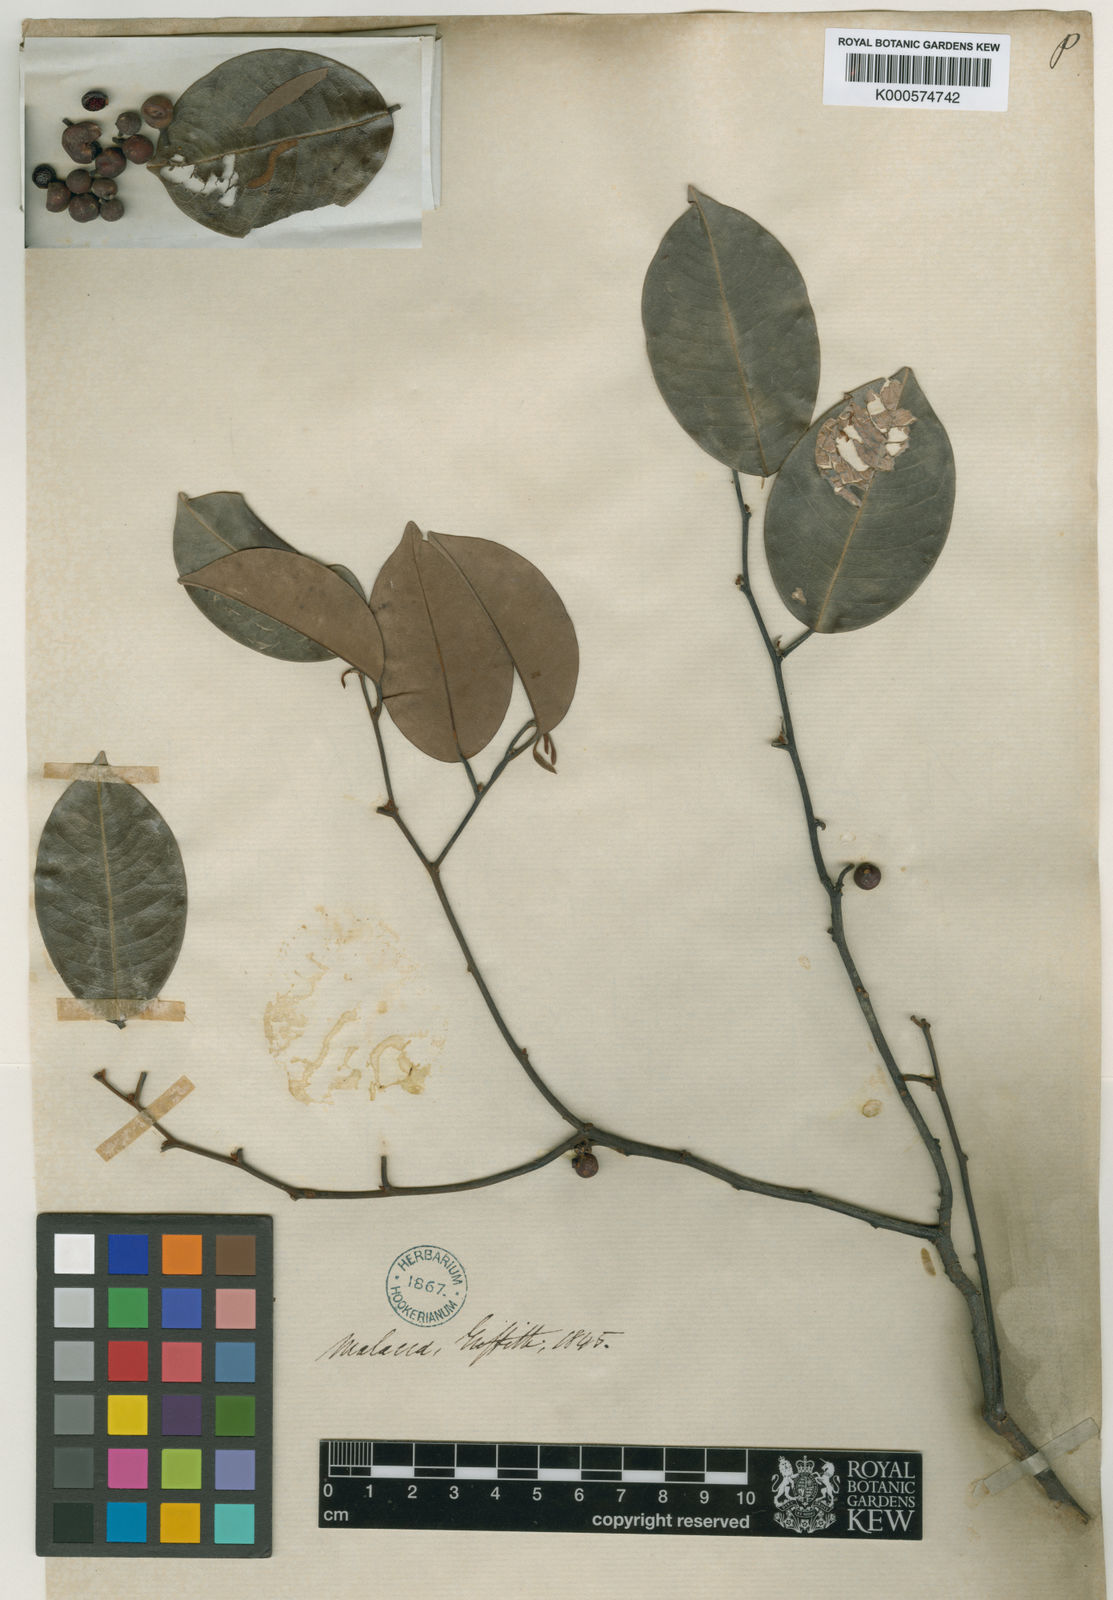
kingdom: Plantae
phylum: Tracheophyta
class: Magnoliopsida
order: Magnoliales
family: Annonaceae
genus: Mitrella
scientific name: Mitrella kentii
